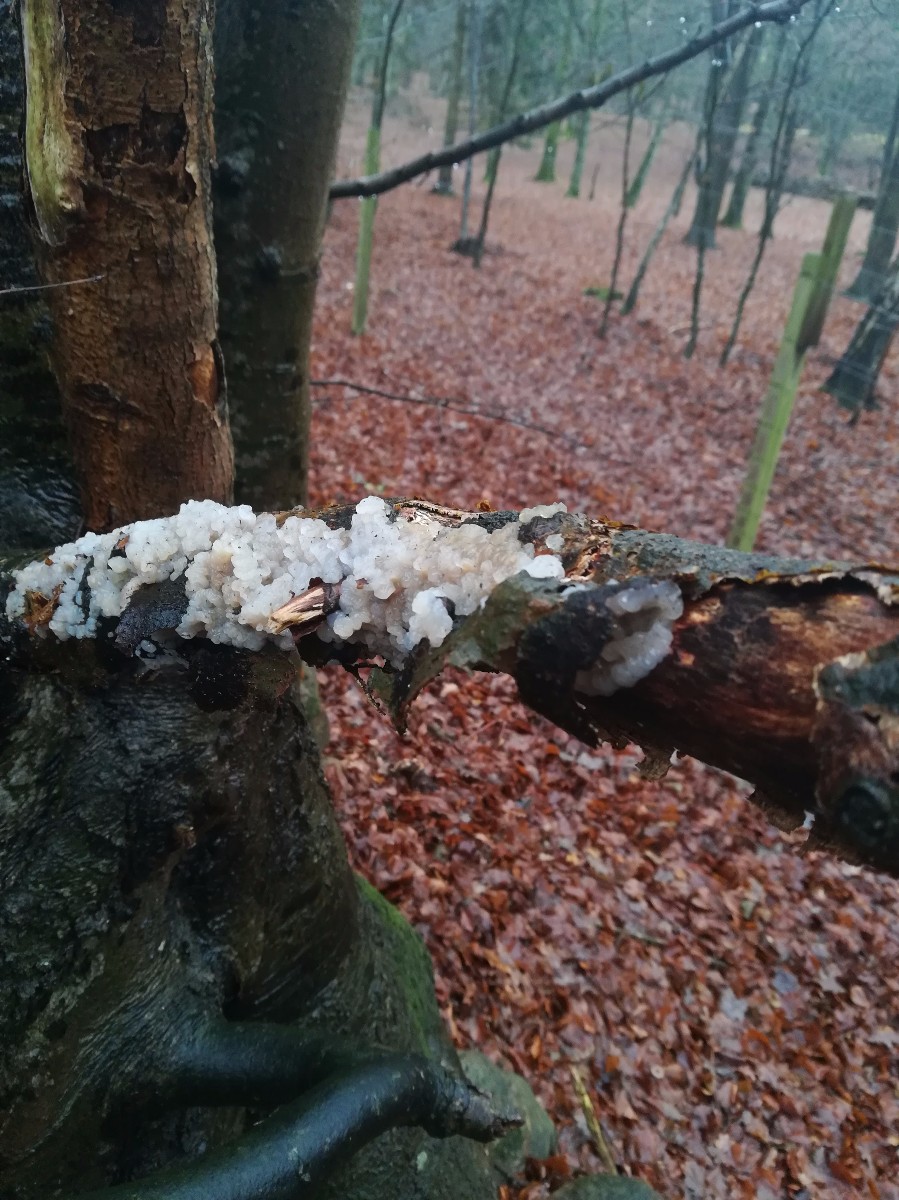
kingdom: Fungi
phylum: Basidiomycota
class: Tremellomycetes
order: Tremellales
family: Exidiaceae
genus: Exidia
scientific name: Exidia
